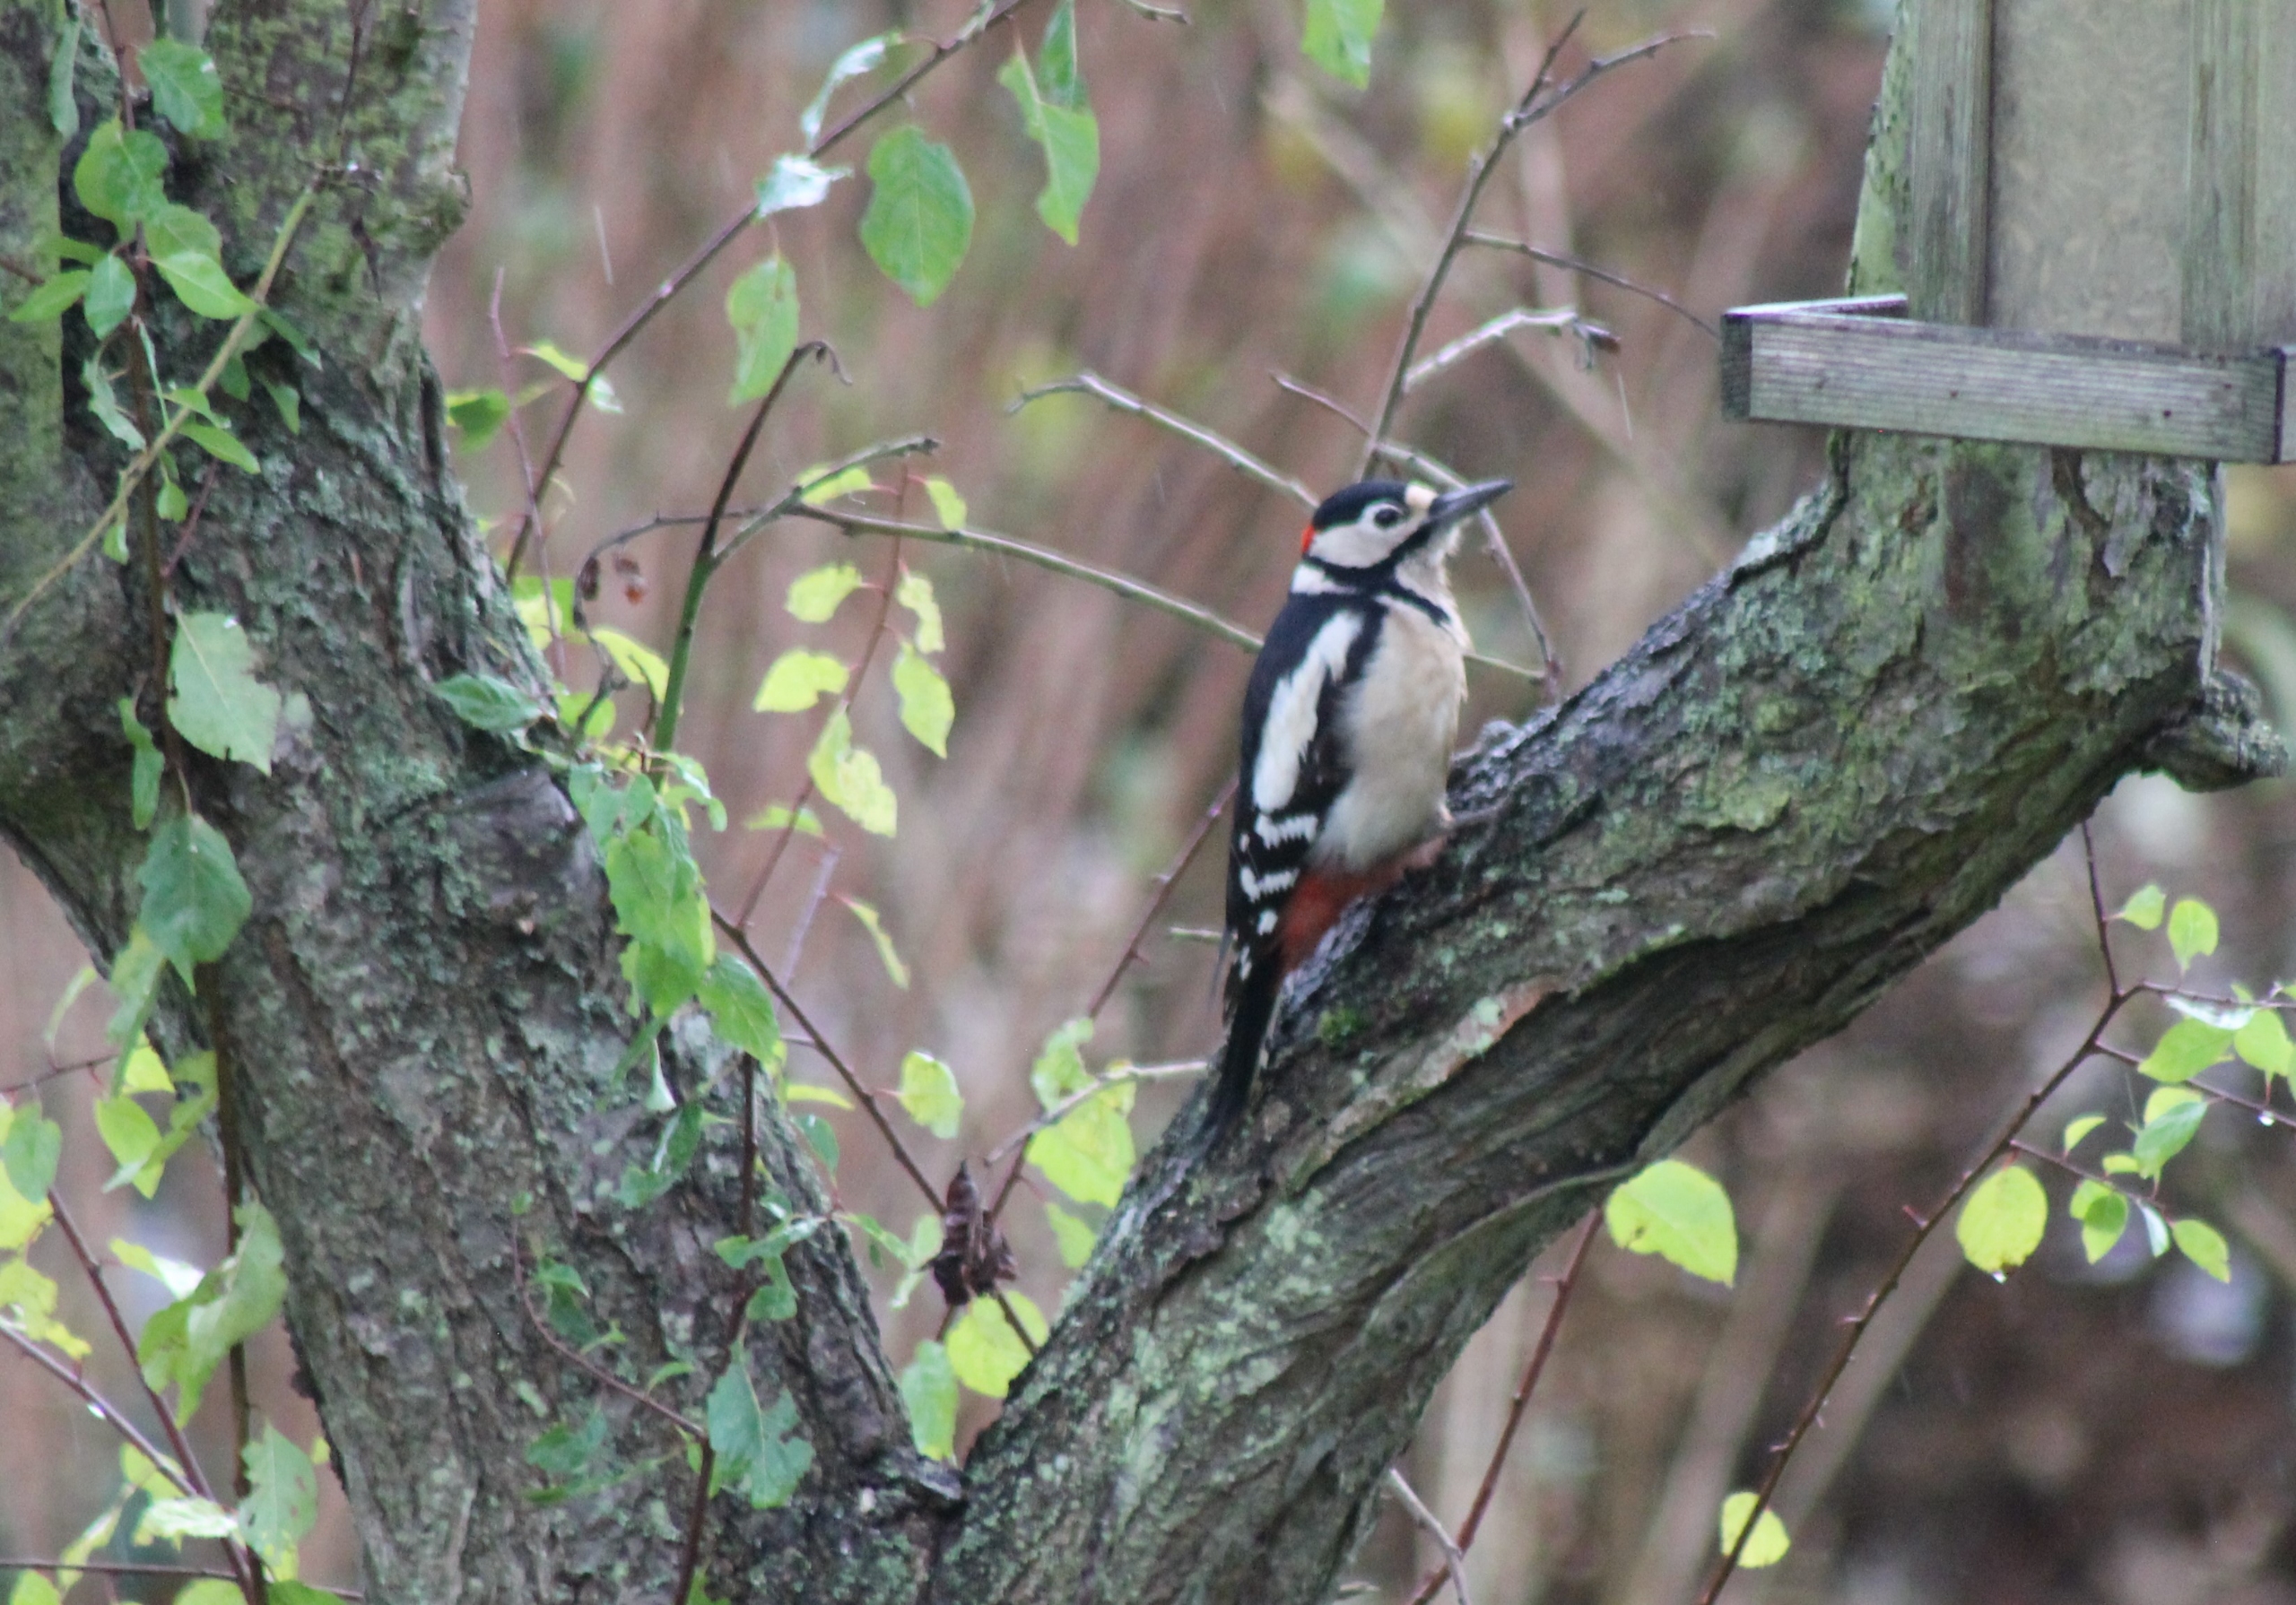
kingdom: Animalia
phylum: Chordata
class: Aves
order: Piciformes
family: Picidae
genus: Dendrocopos
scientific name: Dendrocopos major
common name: Stor flagspætte
